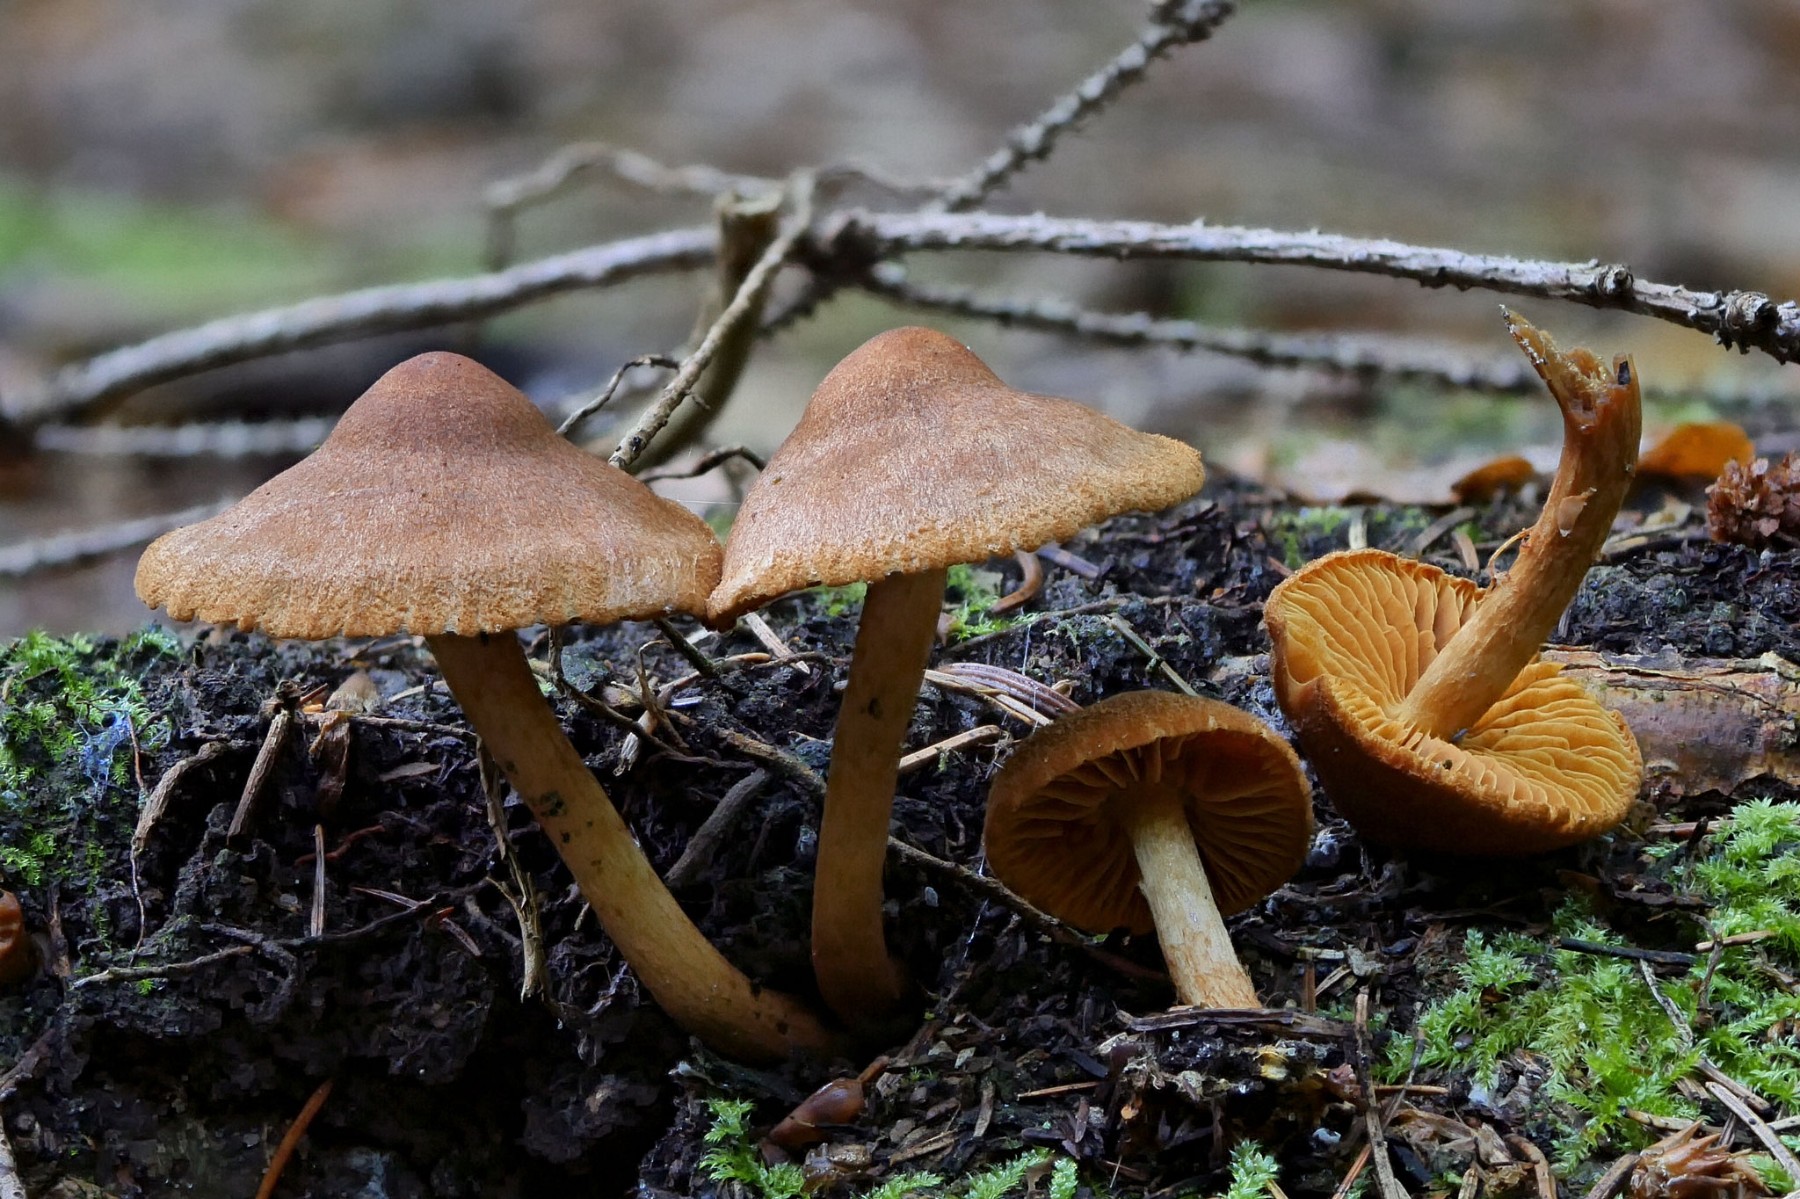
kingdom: Fungi
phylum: Basidiomycota
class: Agaricomycetes
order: Agaricales
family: Cortinariaceae
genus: Cortinarius
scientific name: Cortinarius
